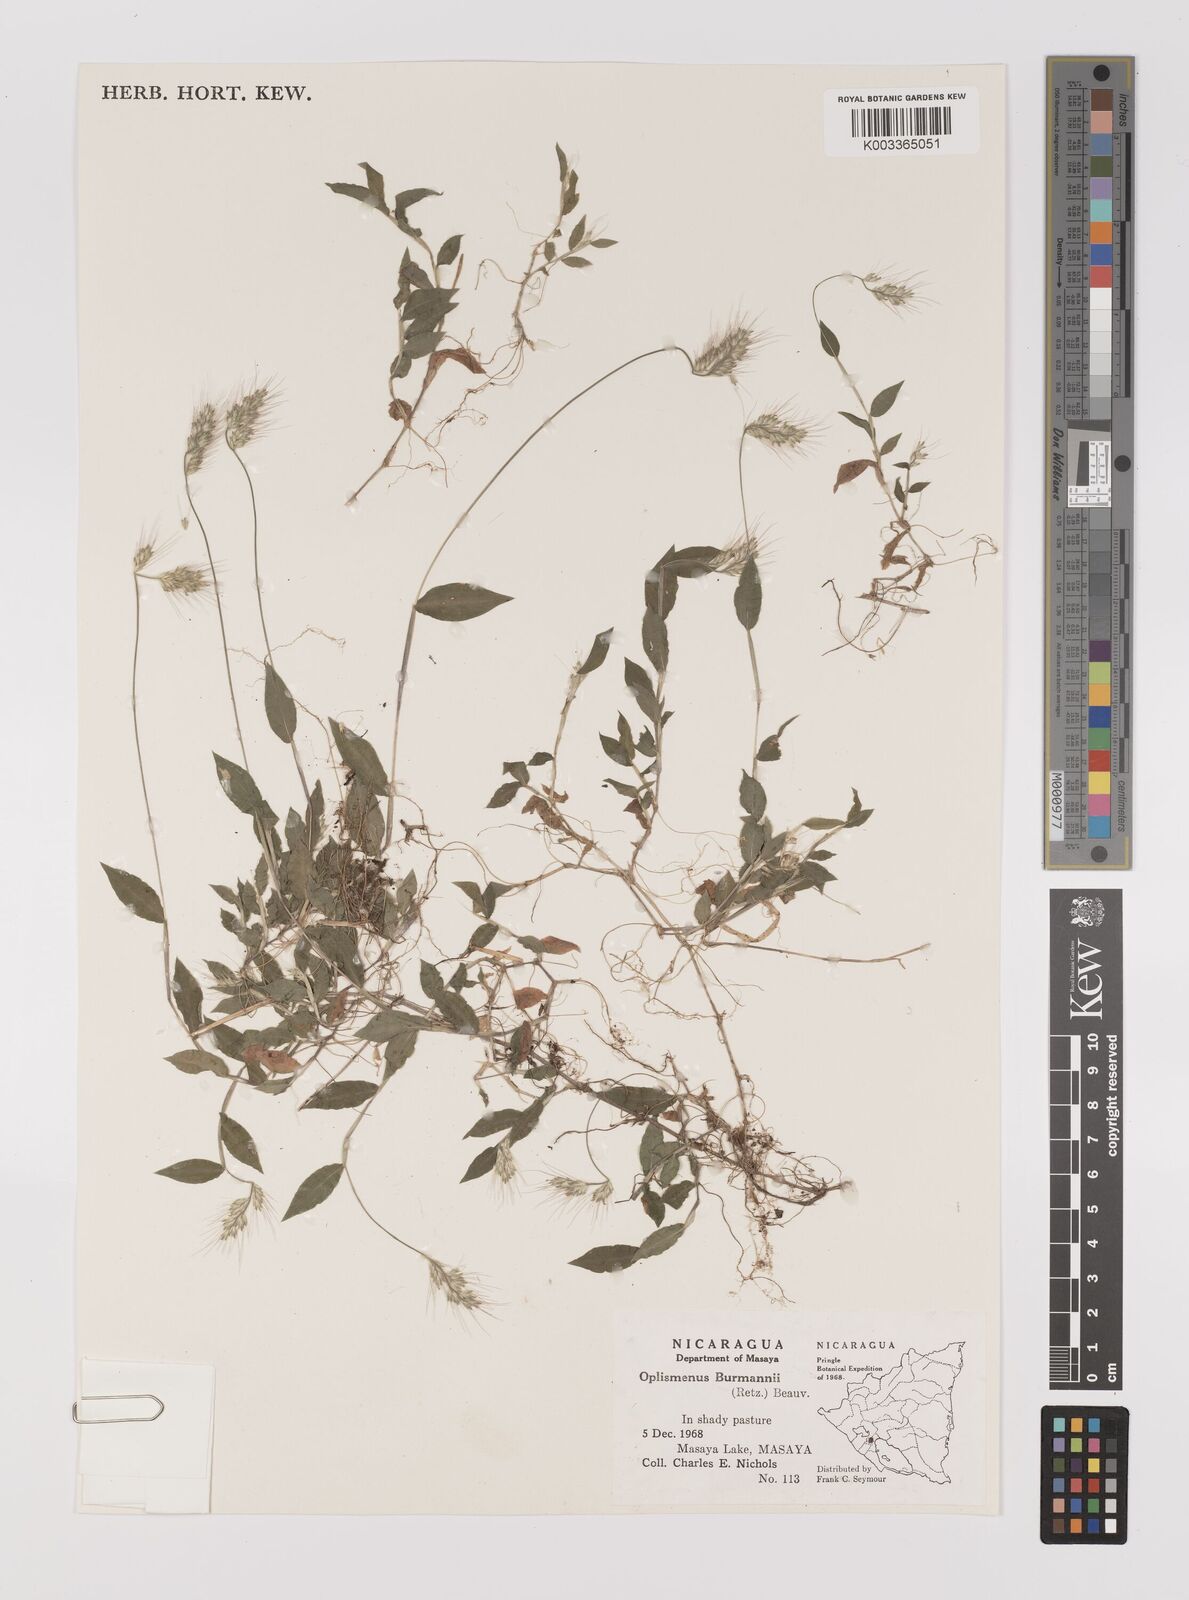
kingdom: Plantae
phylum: Tracheophyta
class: Liliopsida
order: Poales
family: Poaceae
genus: Oplismenus
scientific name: Oplismenus burmanni
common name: Burmann's basketgrass
